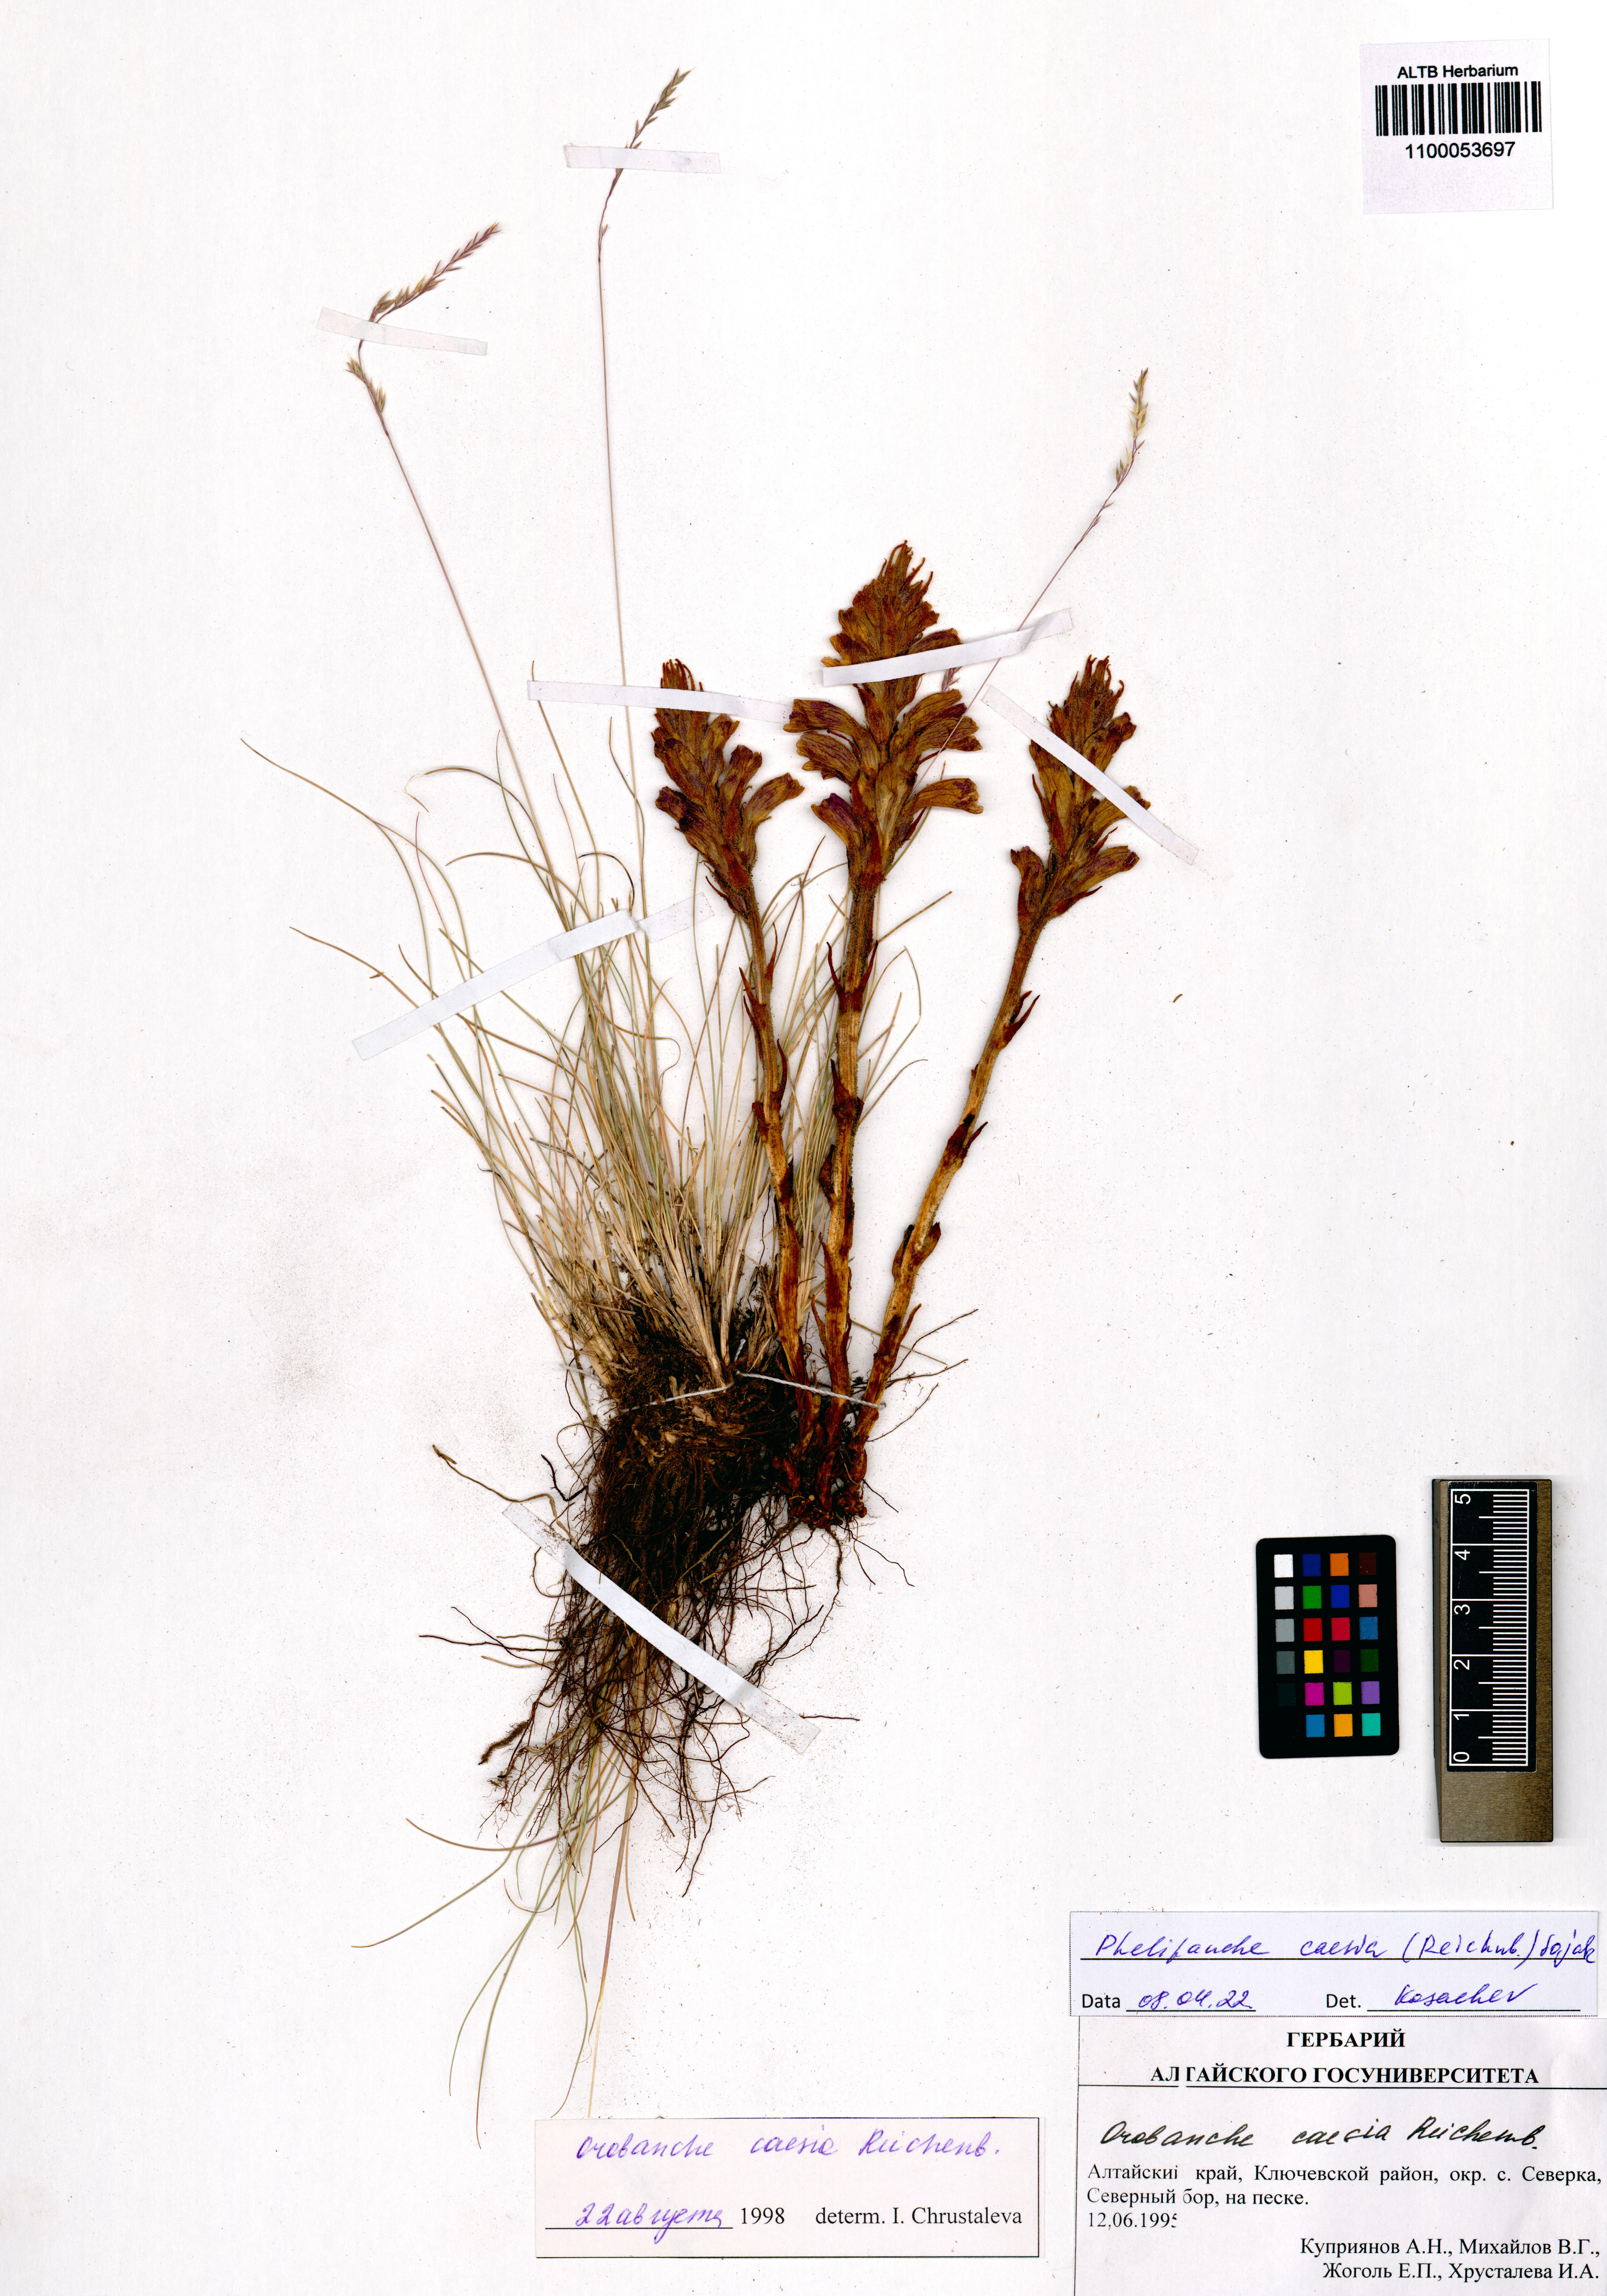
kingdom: Plantae
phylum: Tracheophyta
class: Magnoliopsida
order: Lamiales
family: Orobanchaceae
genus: Phelipanche
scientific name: Phelipanche caesia
